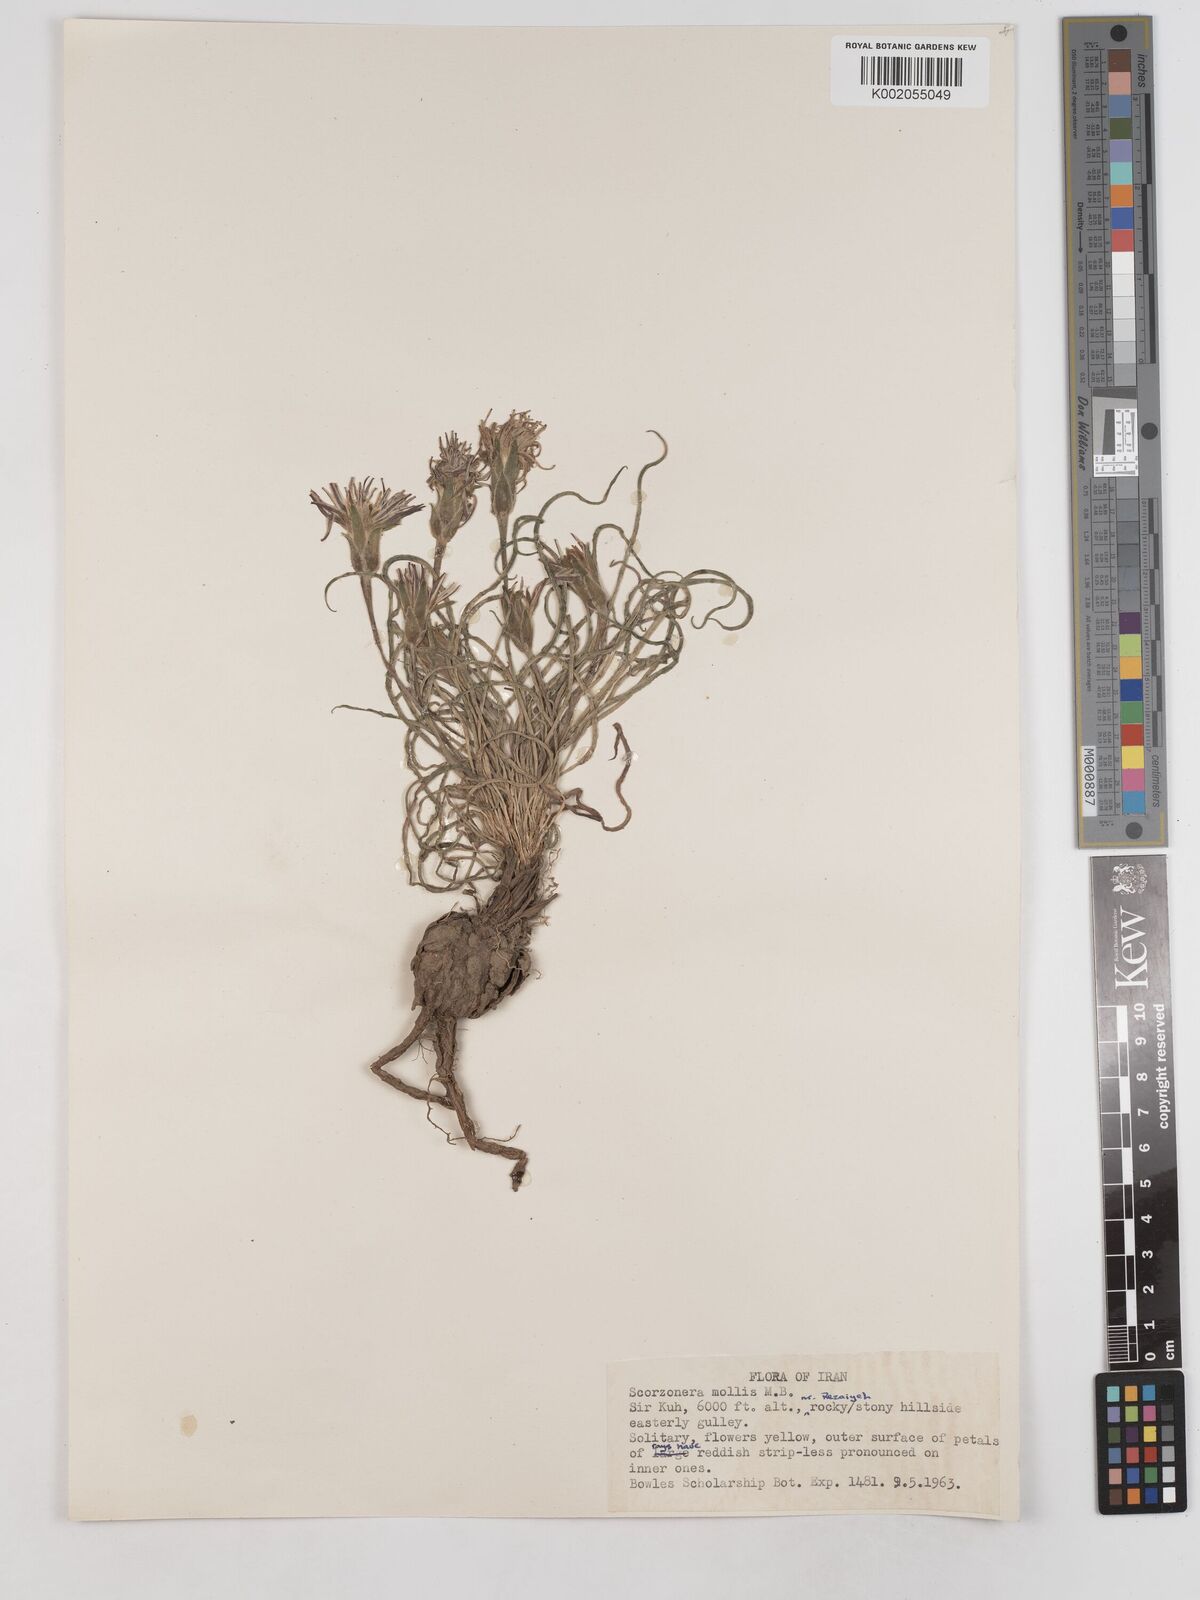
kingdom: Plantae
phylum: Tracheophyta
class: Magnoliopsida
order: Asterales
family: Asteraceae
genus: Candollea
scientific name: Candollea mollis
